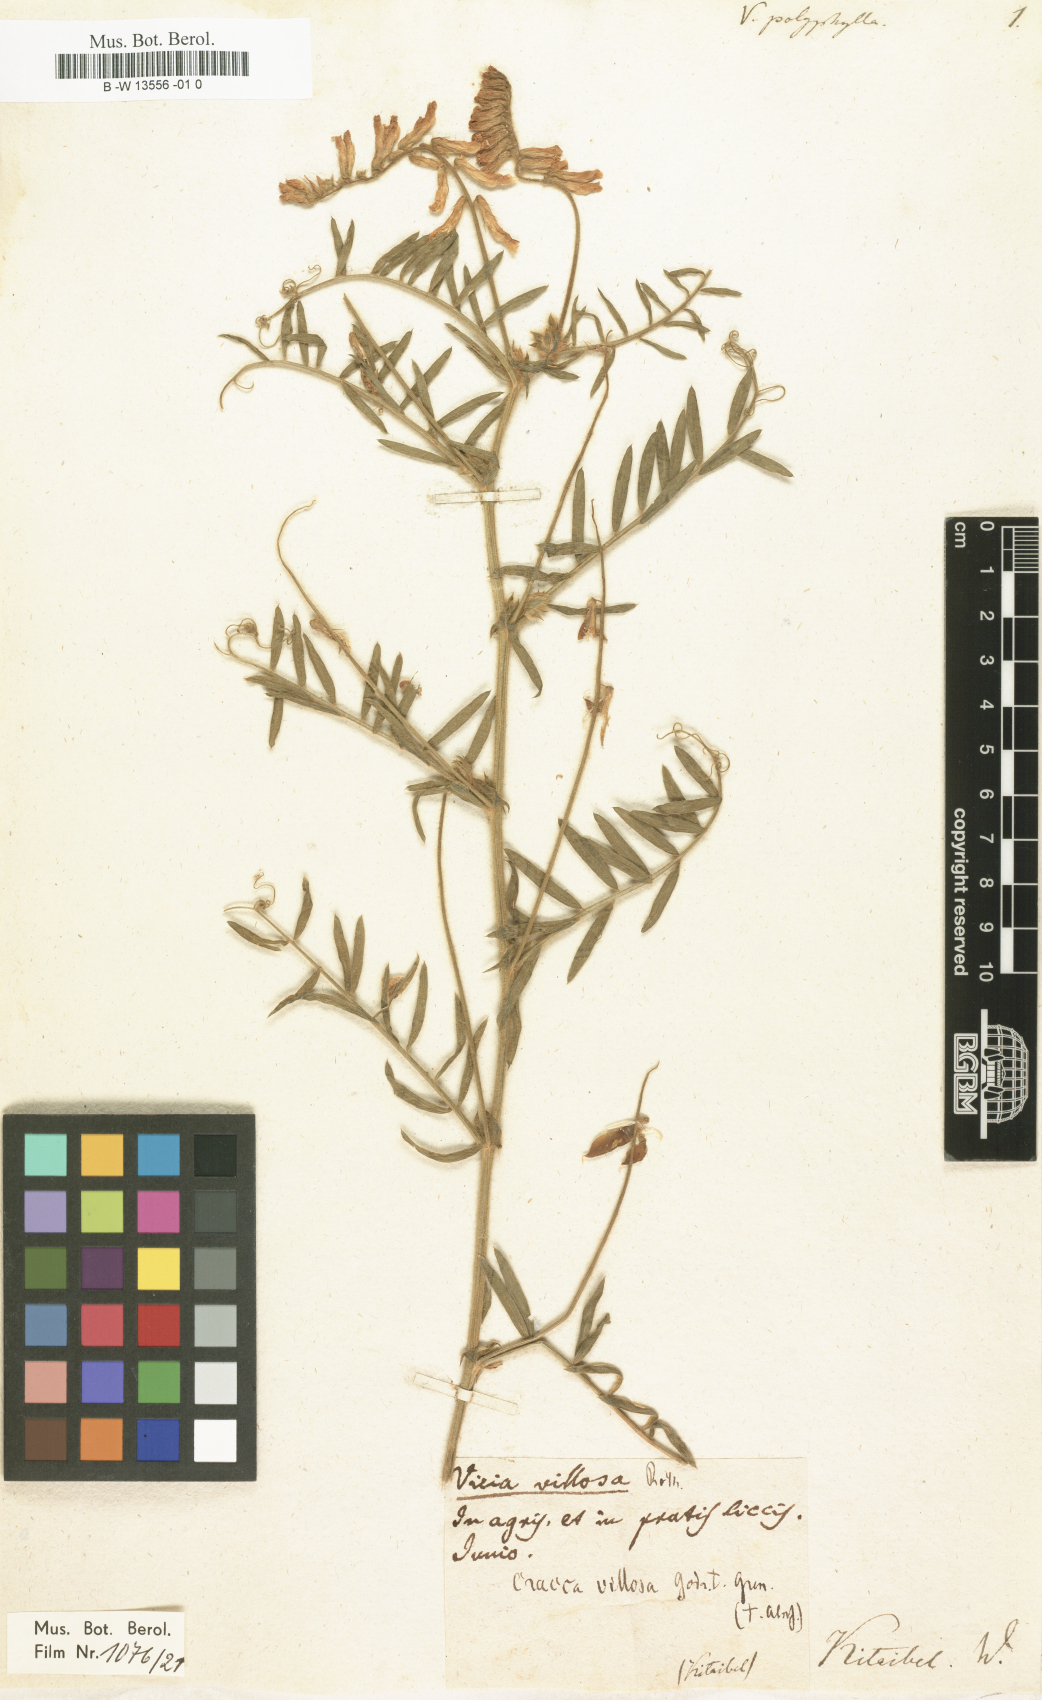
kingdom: Plantae
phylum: Tracheophyta
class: Magnoliopsida
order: Fabales
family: Fabaceae
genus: Vicia
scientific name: Vicia
